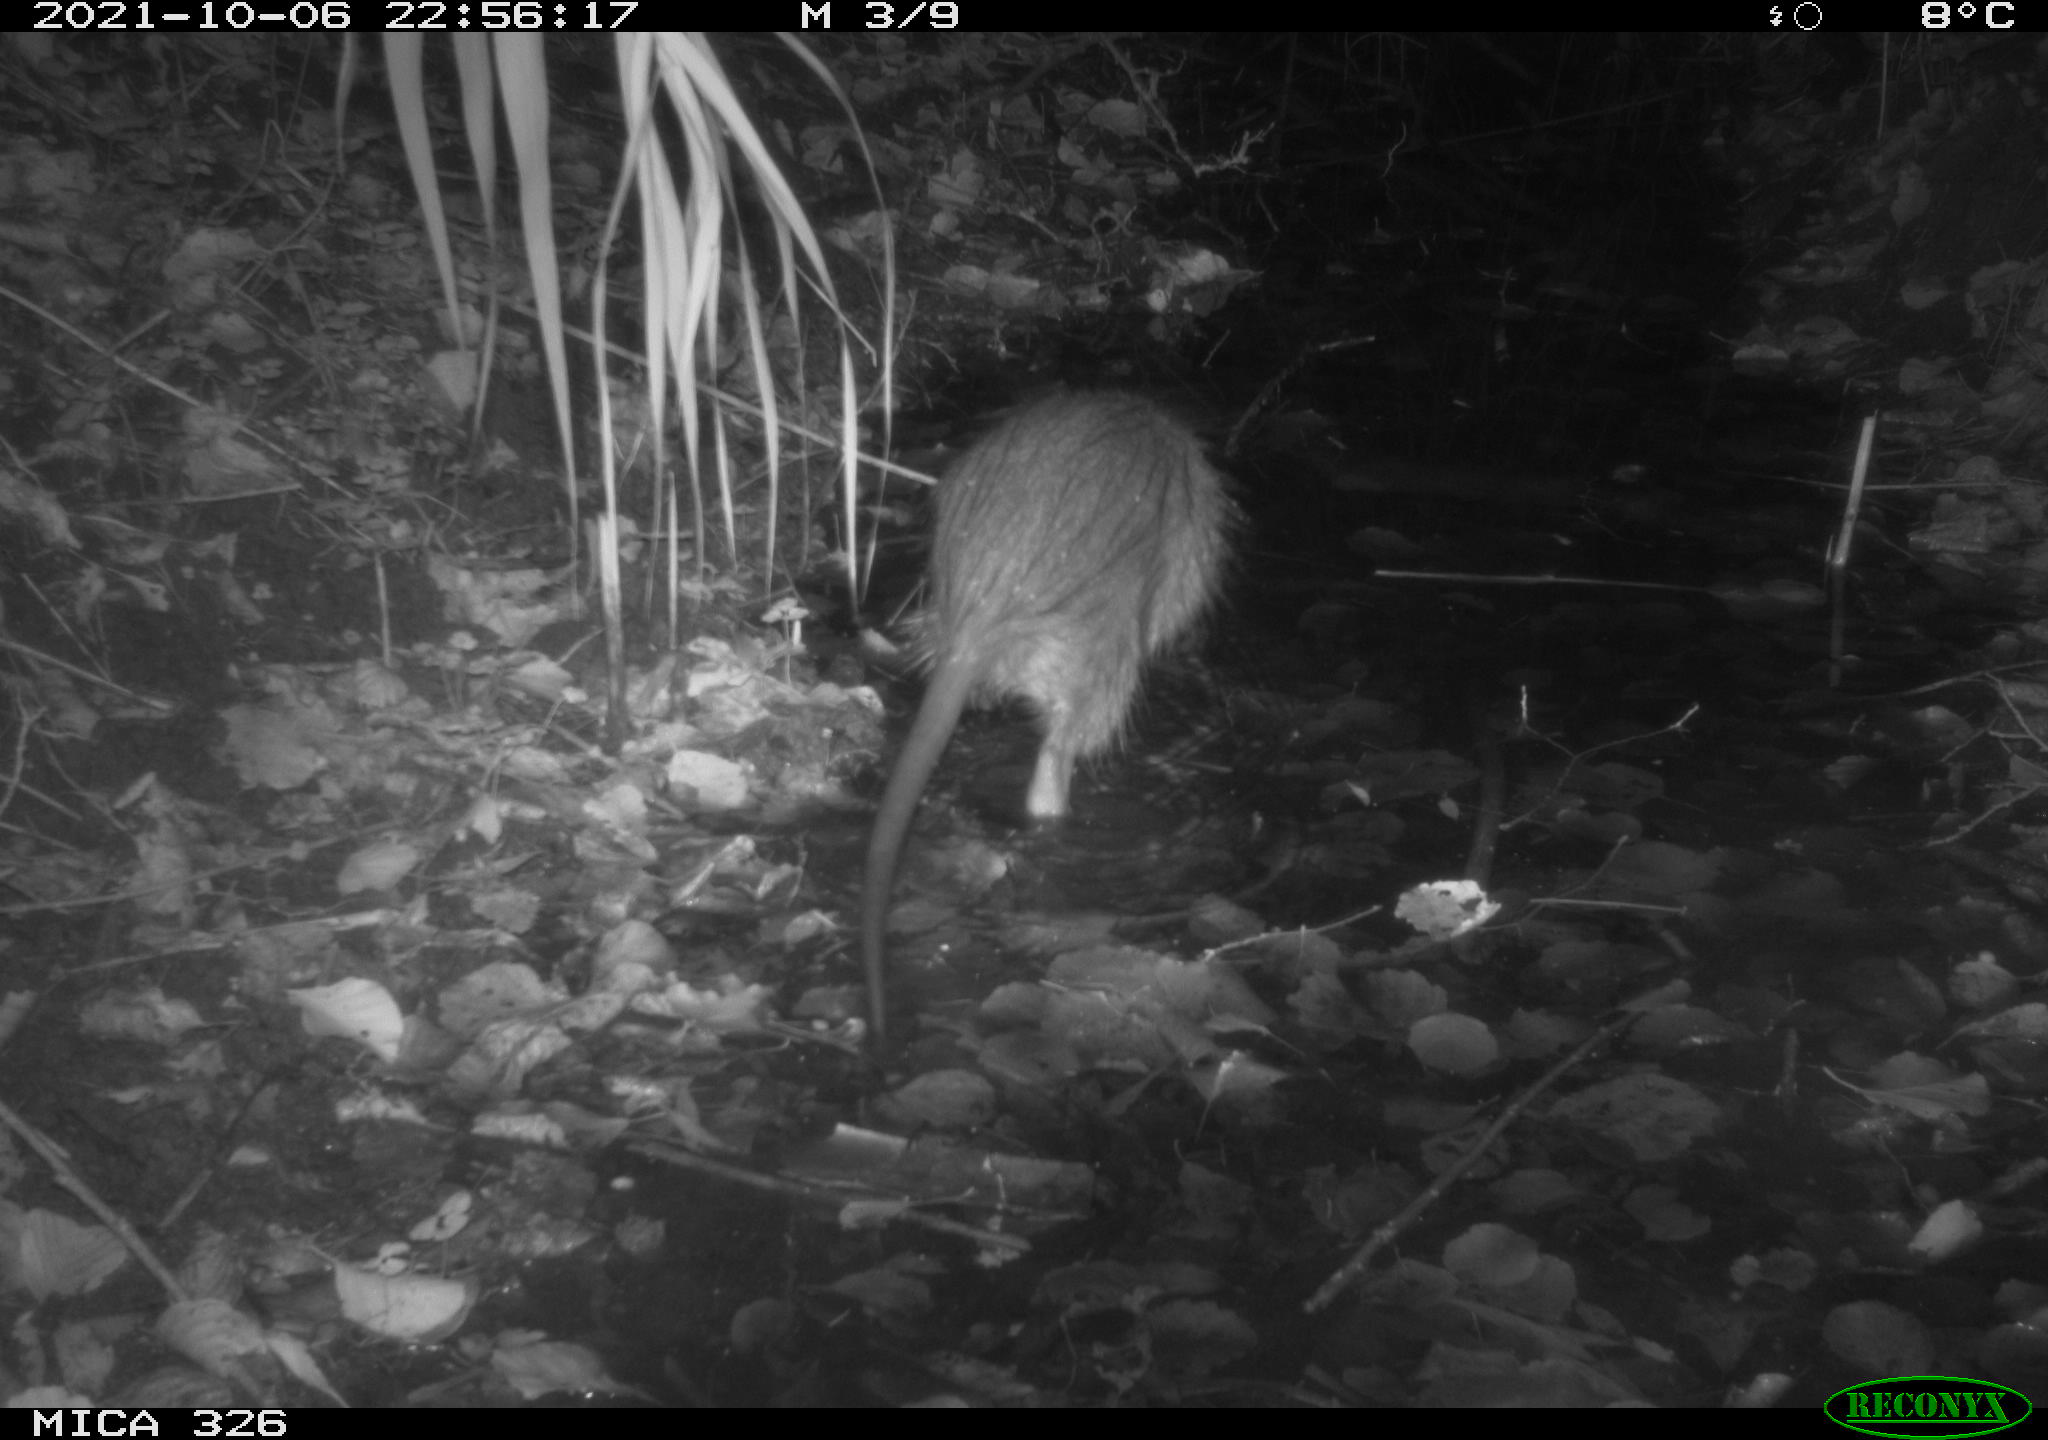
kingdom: Animalia
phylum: Chordata
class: Mammalia
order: Rodentia
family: Myocastoridae
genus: Myocastor
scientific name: Myocastor coypus
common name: Coypu
